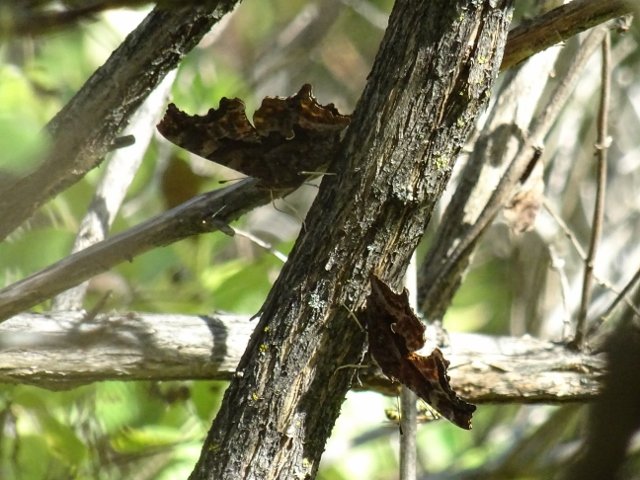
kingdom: Animalia
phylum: Arthropoda
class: Insecta
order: Lepidoptera
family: Nymphalidae
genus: Polygonia
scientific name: Polygonia comma
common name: Eastern Comma
